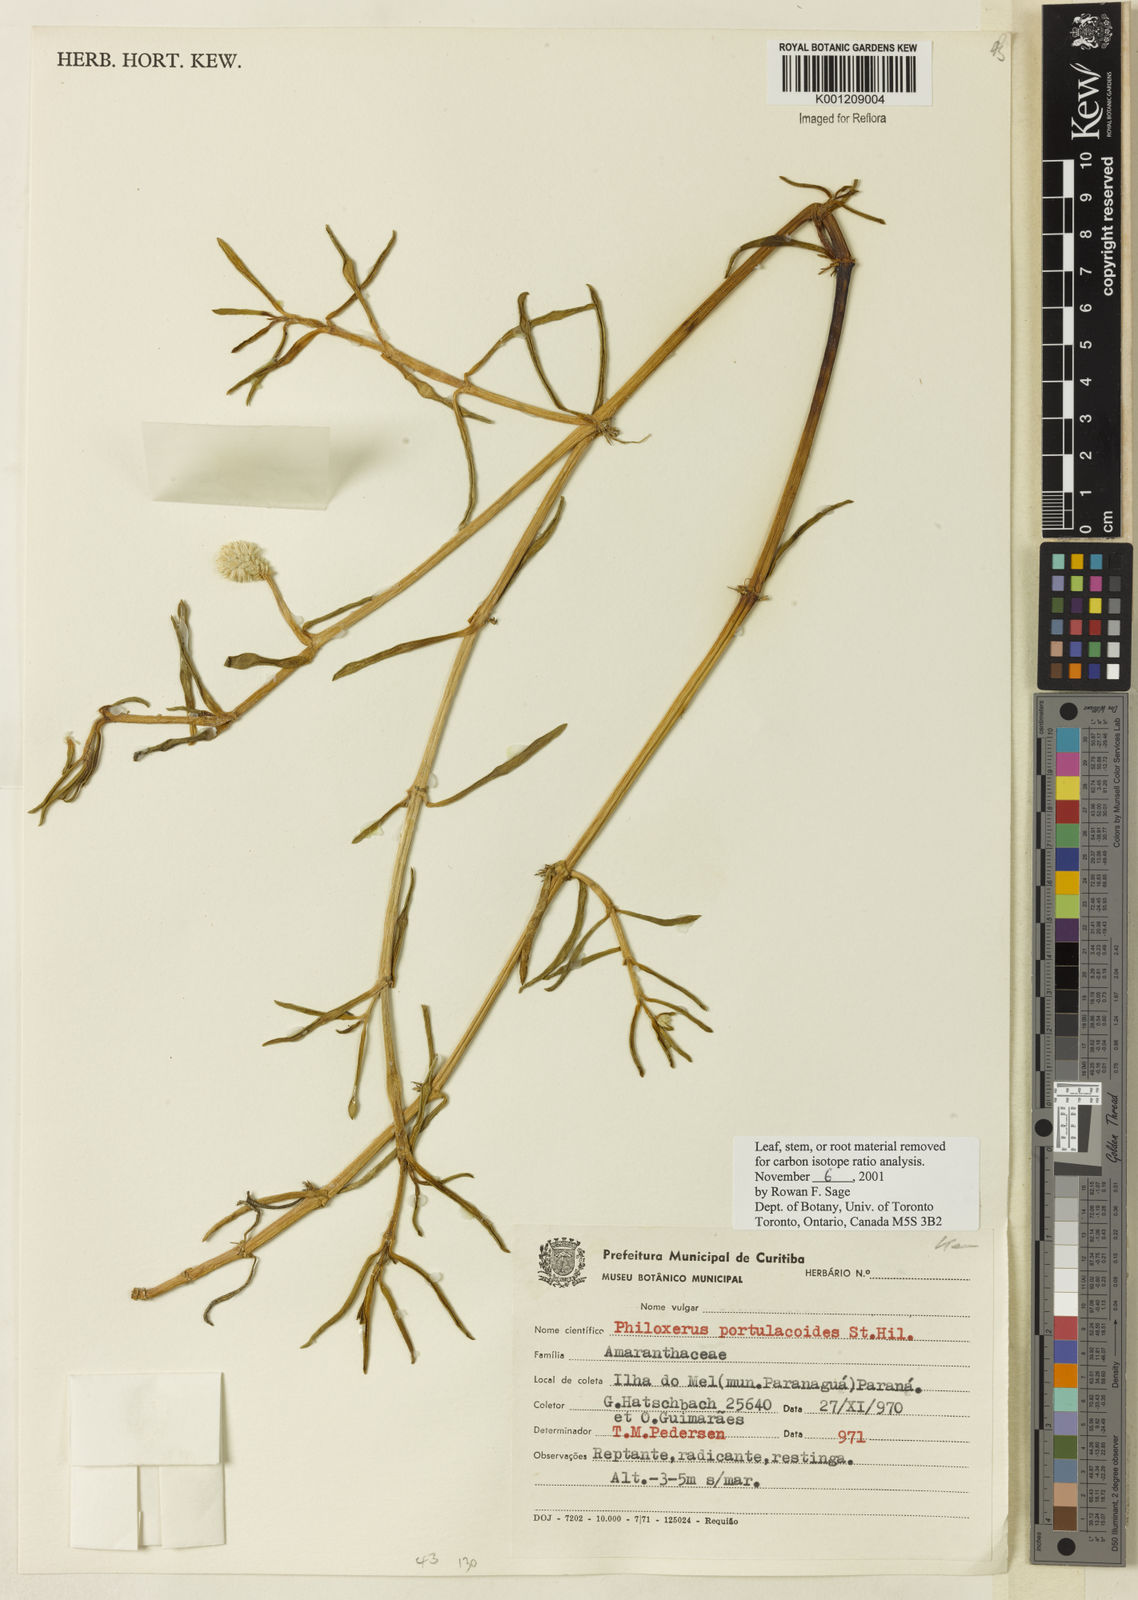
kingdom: Plantae
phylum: Tracheophyta
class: Magnoliopsida
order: Caryophyllales
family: Amaranthaceae
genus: Gomphrena
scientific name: Gomphrena portulacoides
